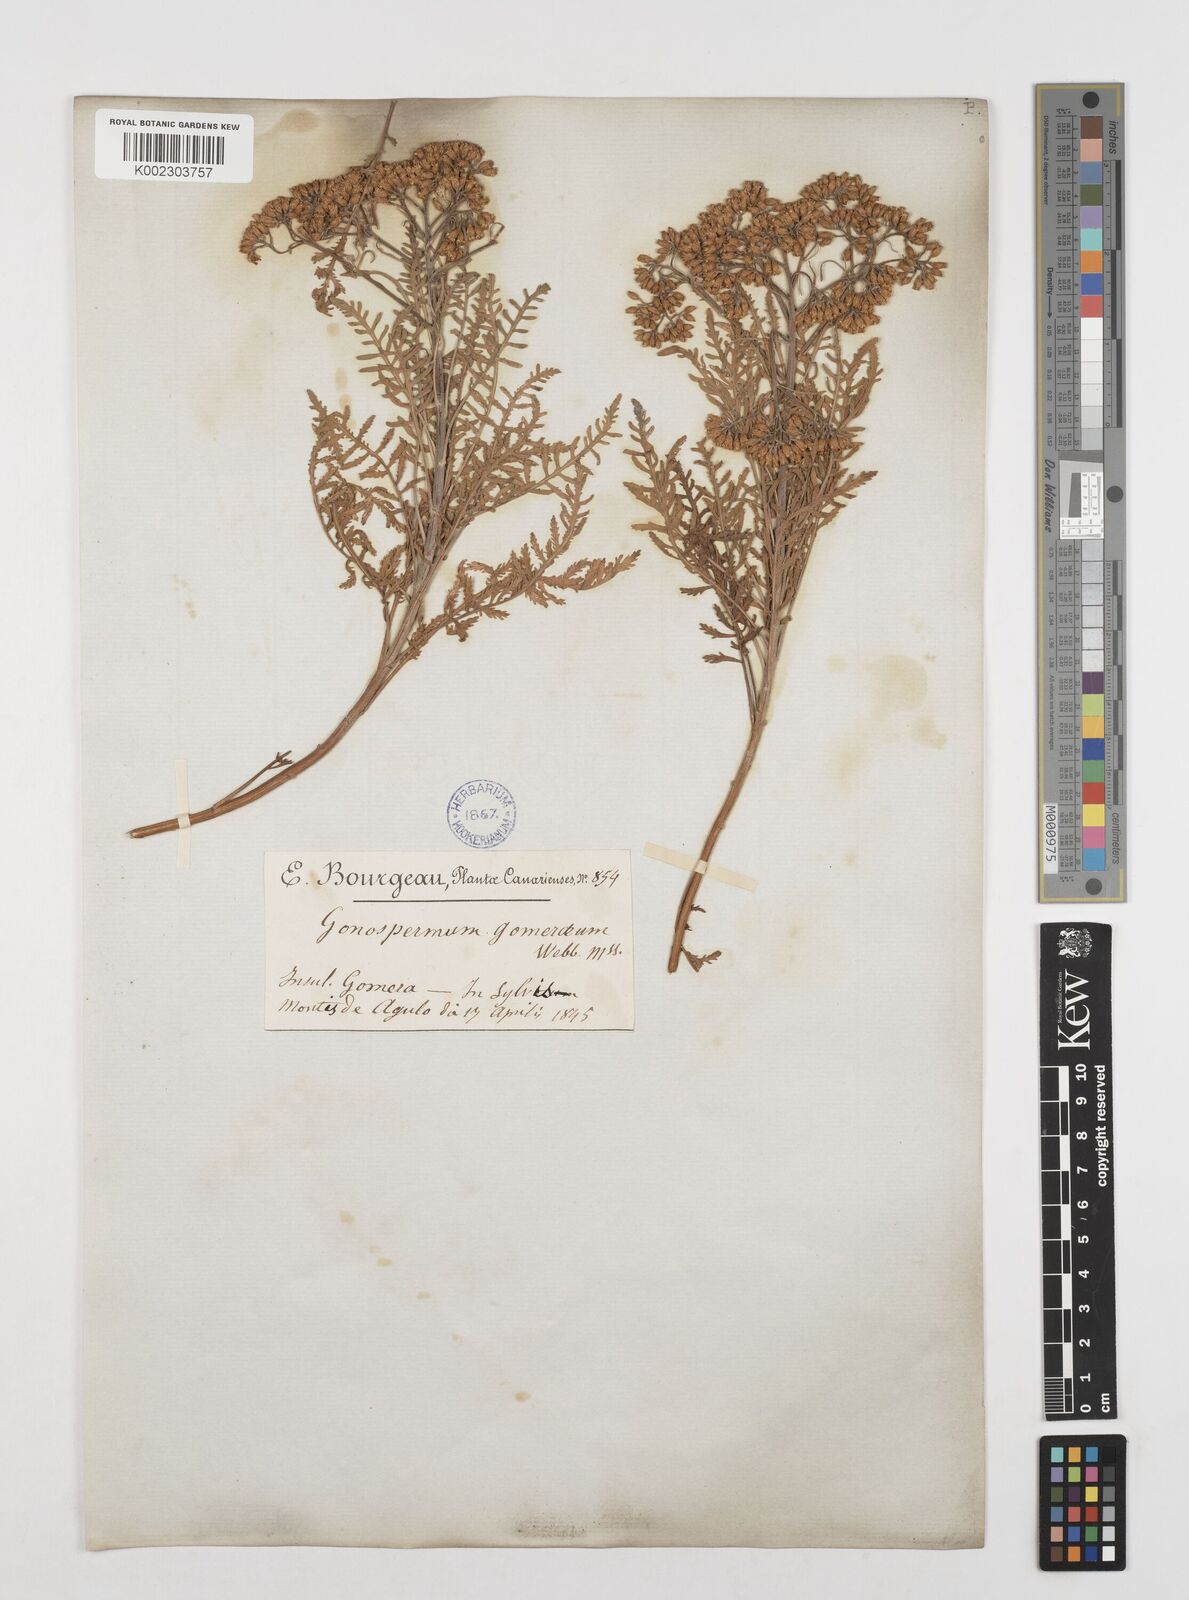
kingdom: Plantae
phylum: Tracheophyta
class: Magnoliopsida
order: Asterales
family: Asteraceae
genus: Gonospermum
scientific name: Gonospermum gomerae
